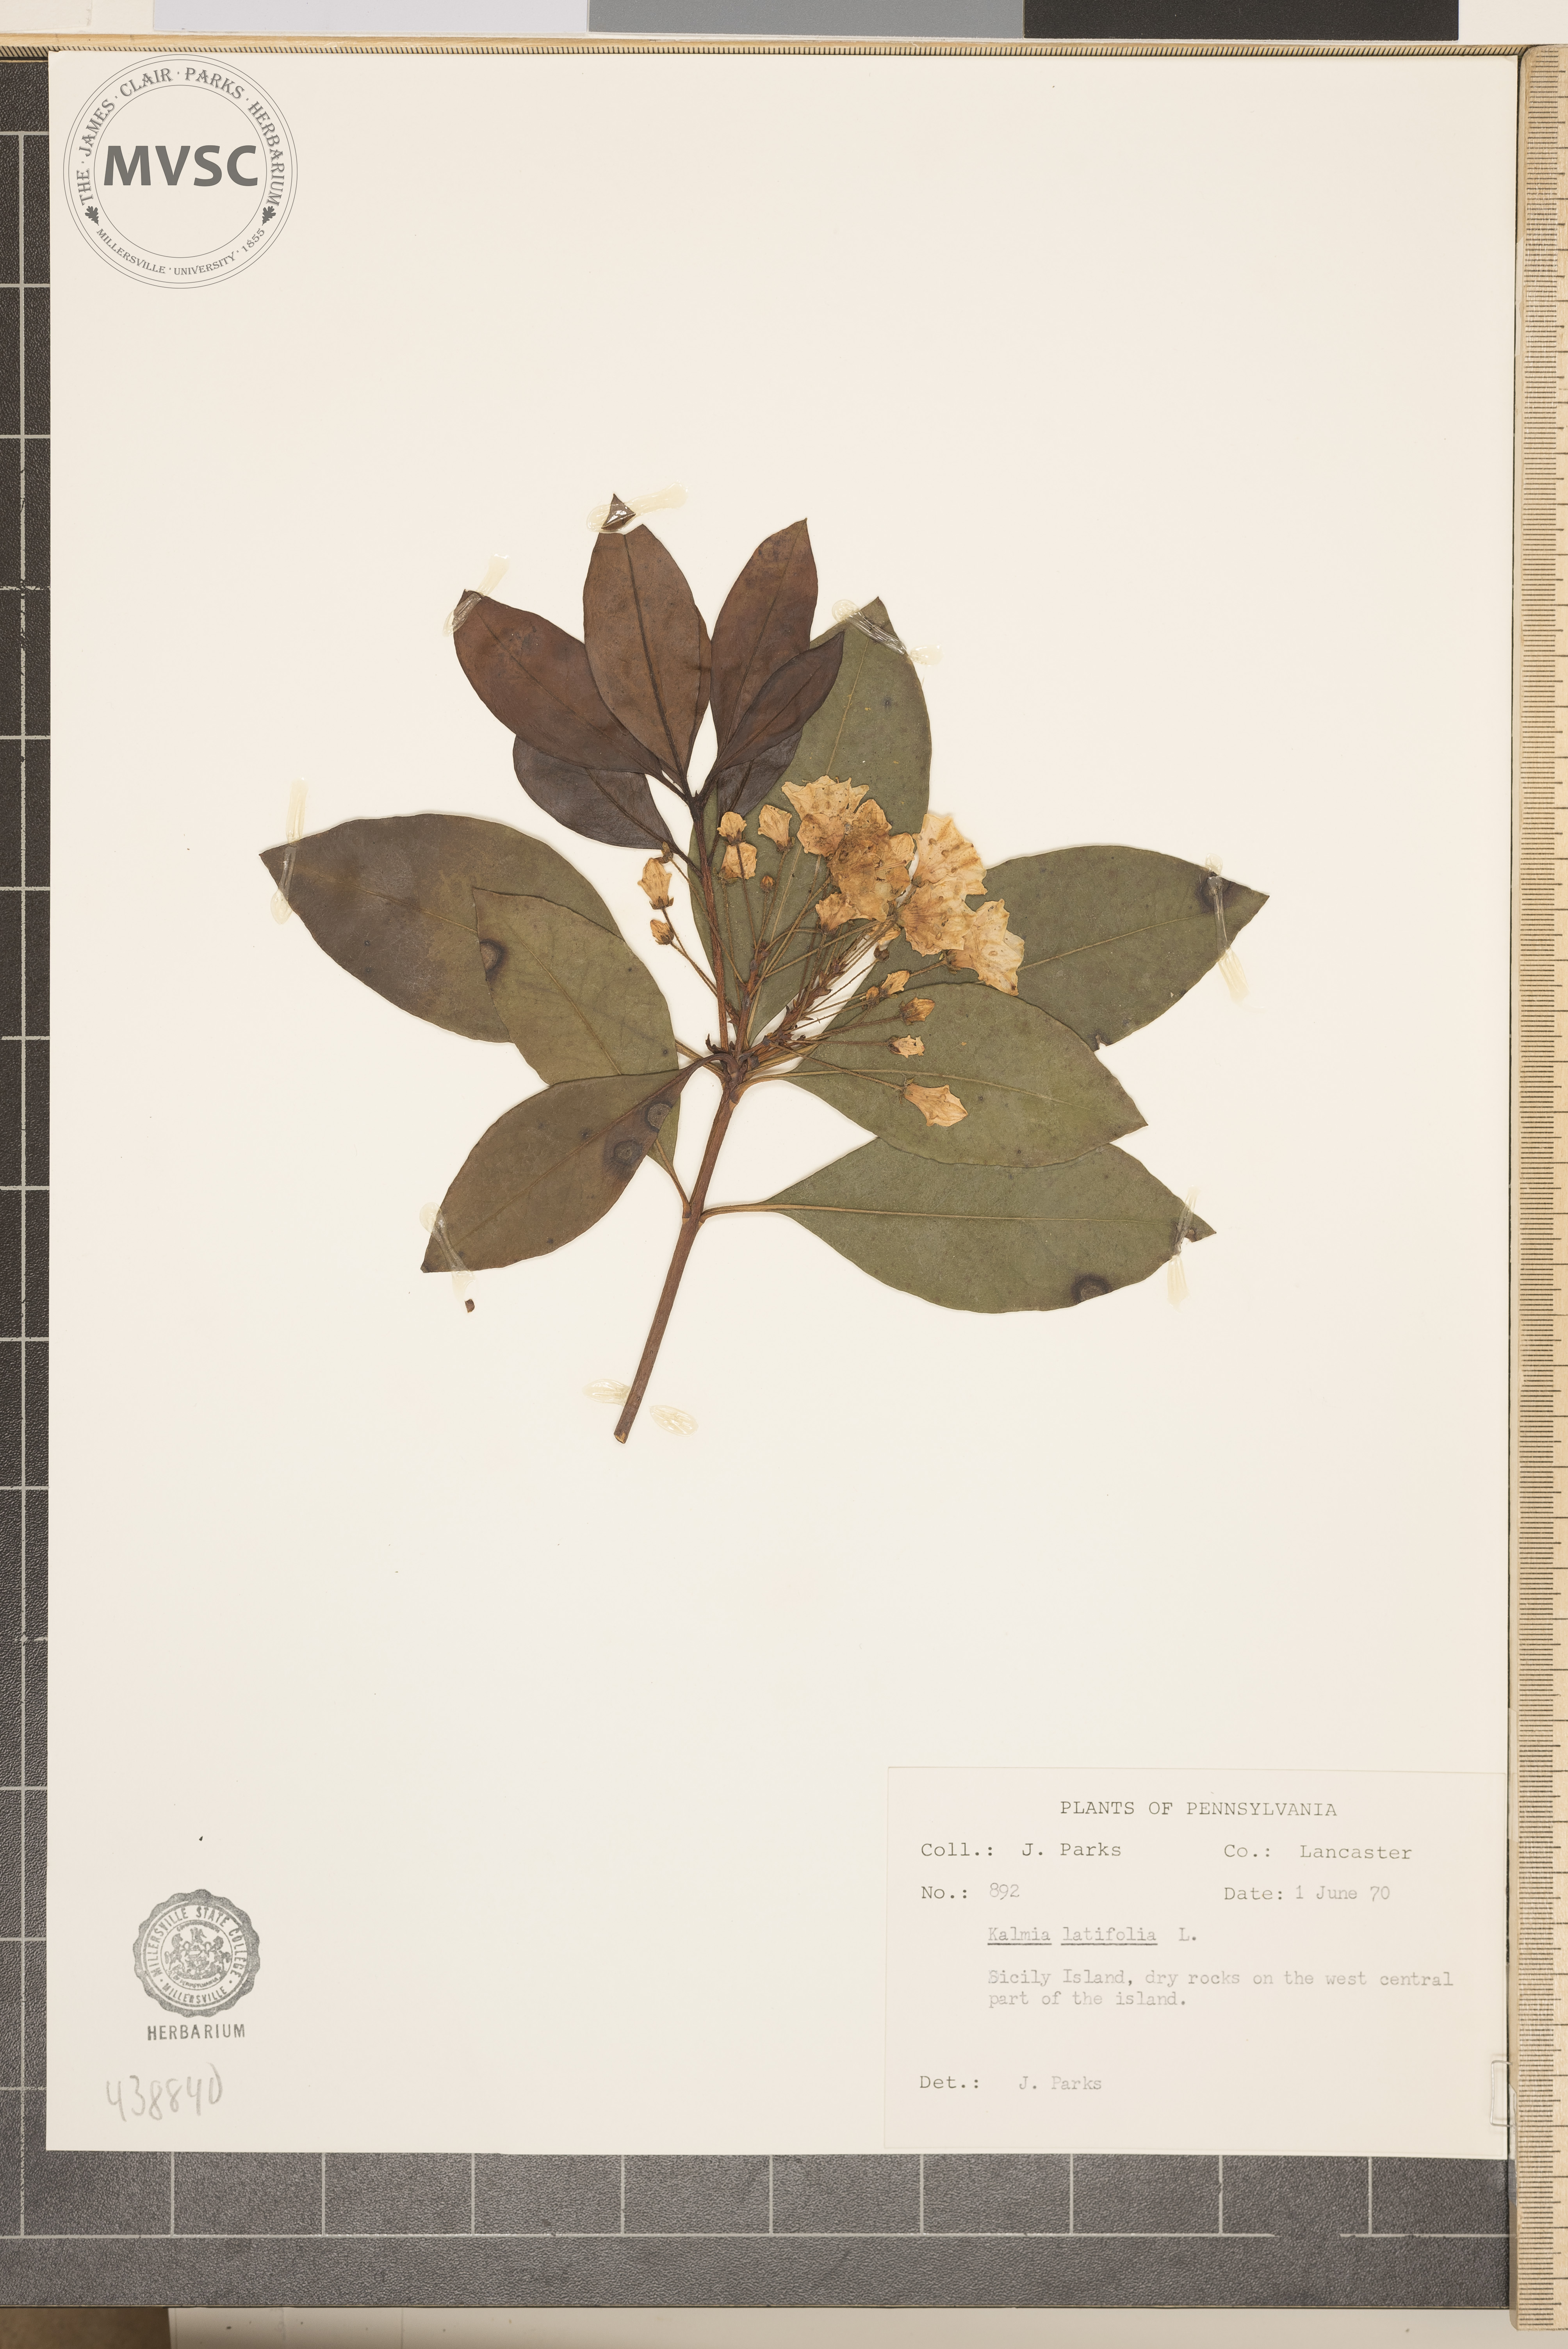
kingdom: Plantae
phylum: Tracheophyta
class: Magnoliopsida
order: Ericales
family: Ericaceae
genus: Kalmia
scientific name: Kalmia latifolia
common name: Mountain-laurel
